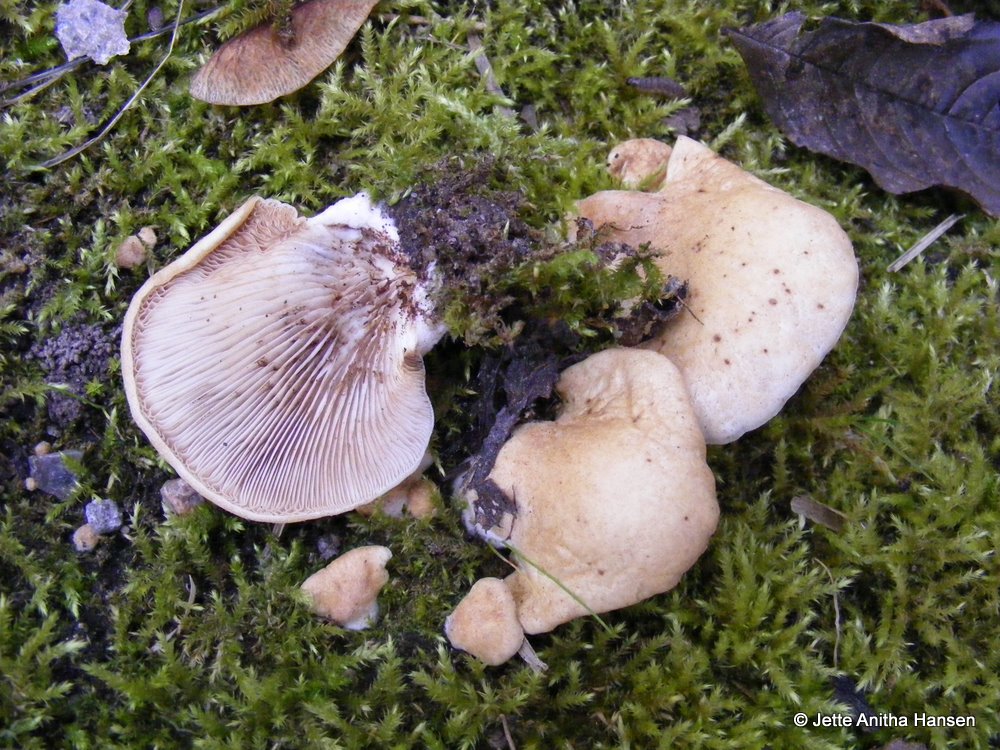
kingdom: Fungi
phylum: Basidiomycota
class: Agaricomycetes
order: Agaricales
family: Crepidotaceae
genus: Crepidotus
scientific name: Crepidotus mollis
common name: blød muslingesvamp
